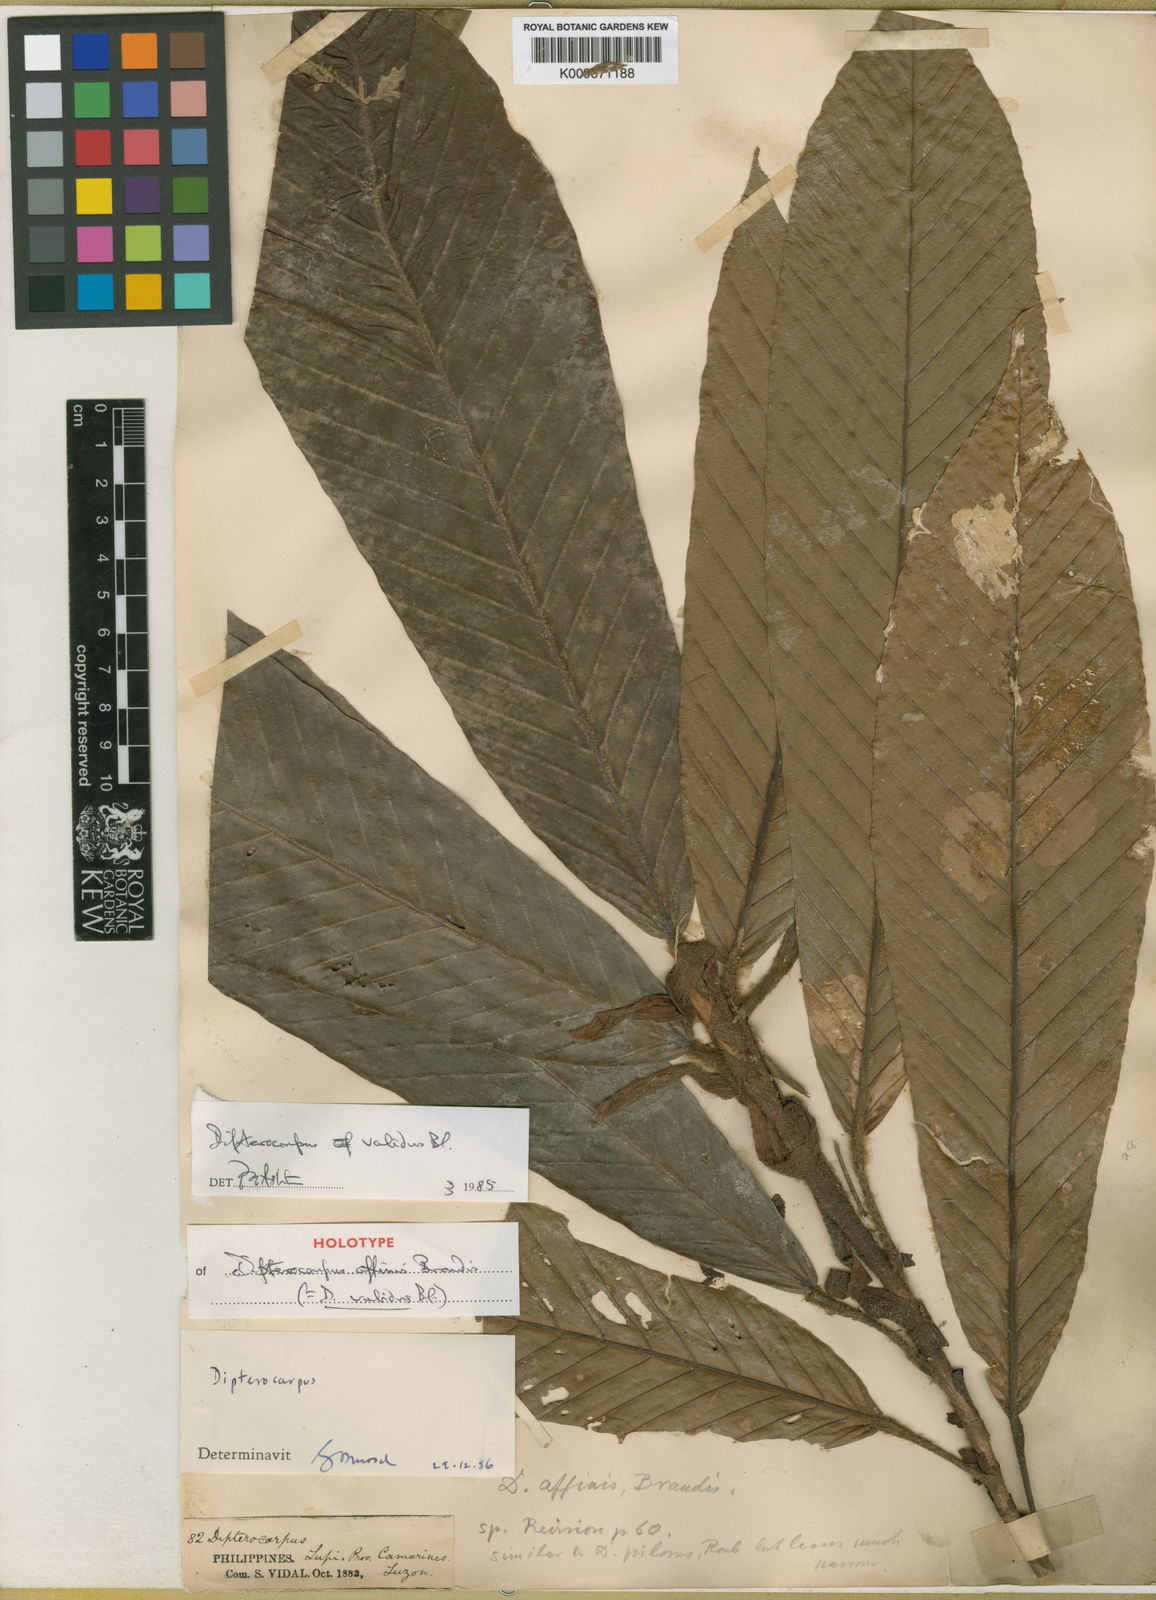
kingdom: Plantae
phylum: Tracheophyta
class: Magnoliopsida
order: Malvales
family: Dipterocarpaceae
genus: Dipterocarpus
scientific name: Dipterocarpus validus
